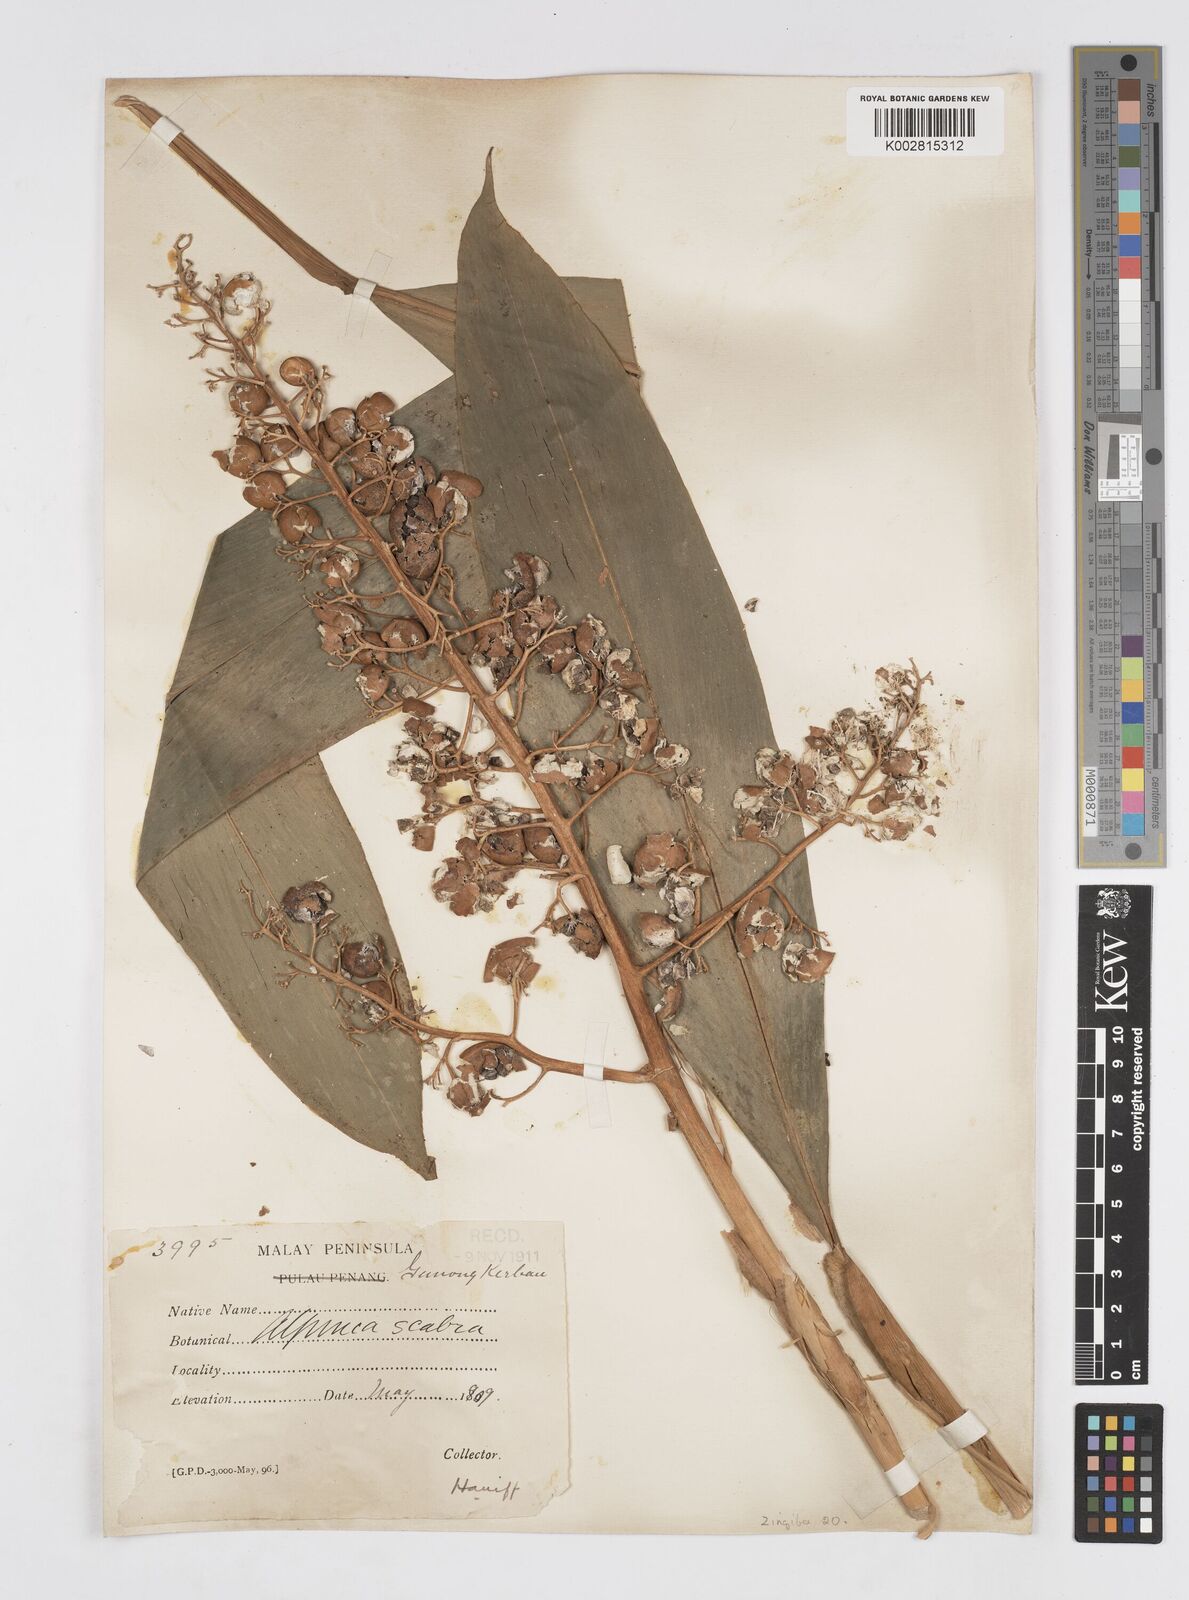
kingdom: Plantae
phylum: Tracheophyta
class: Liliopsida
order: Zingiberales
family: Zingiberaceae
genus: Alpinia
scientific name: Alpinia scabra
